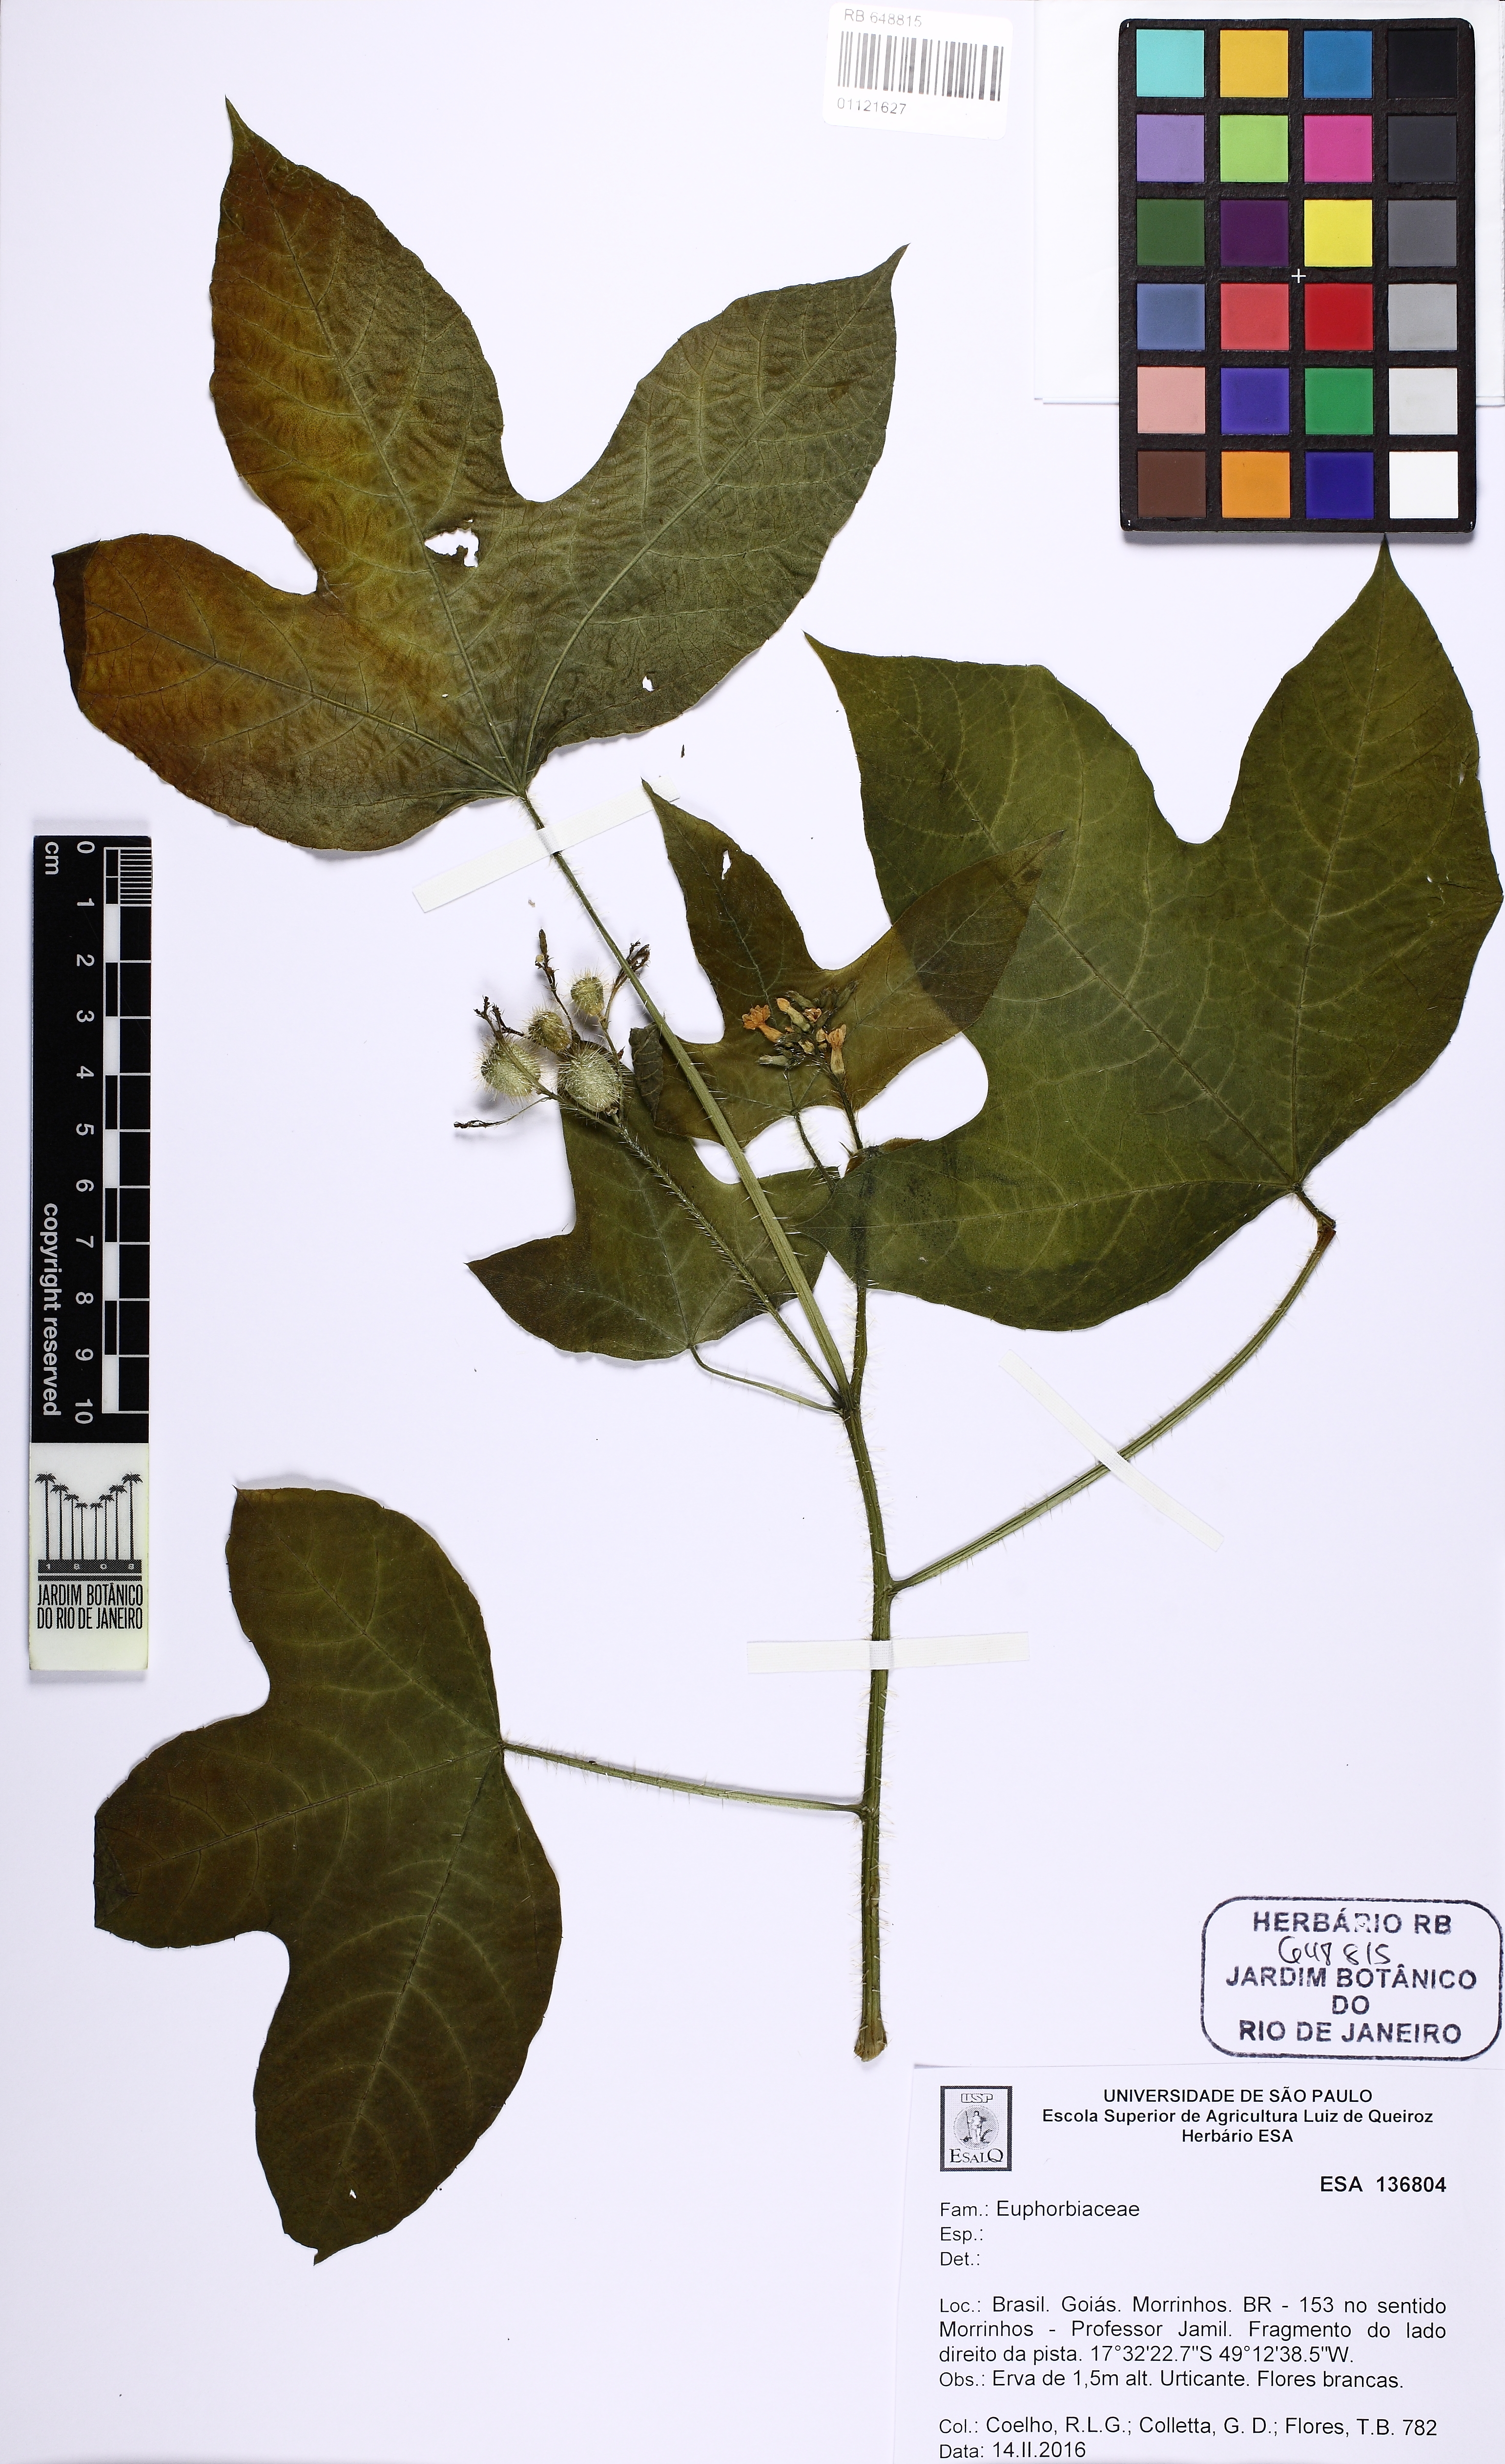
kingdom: Plantae
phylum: Tracheophyta
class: Magnoliopsida
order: Malpighiales
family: Euphorbiaceae
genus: Cnidoscolus
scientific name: Cnidoscolus
